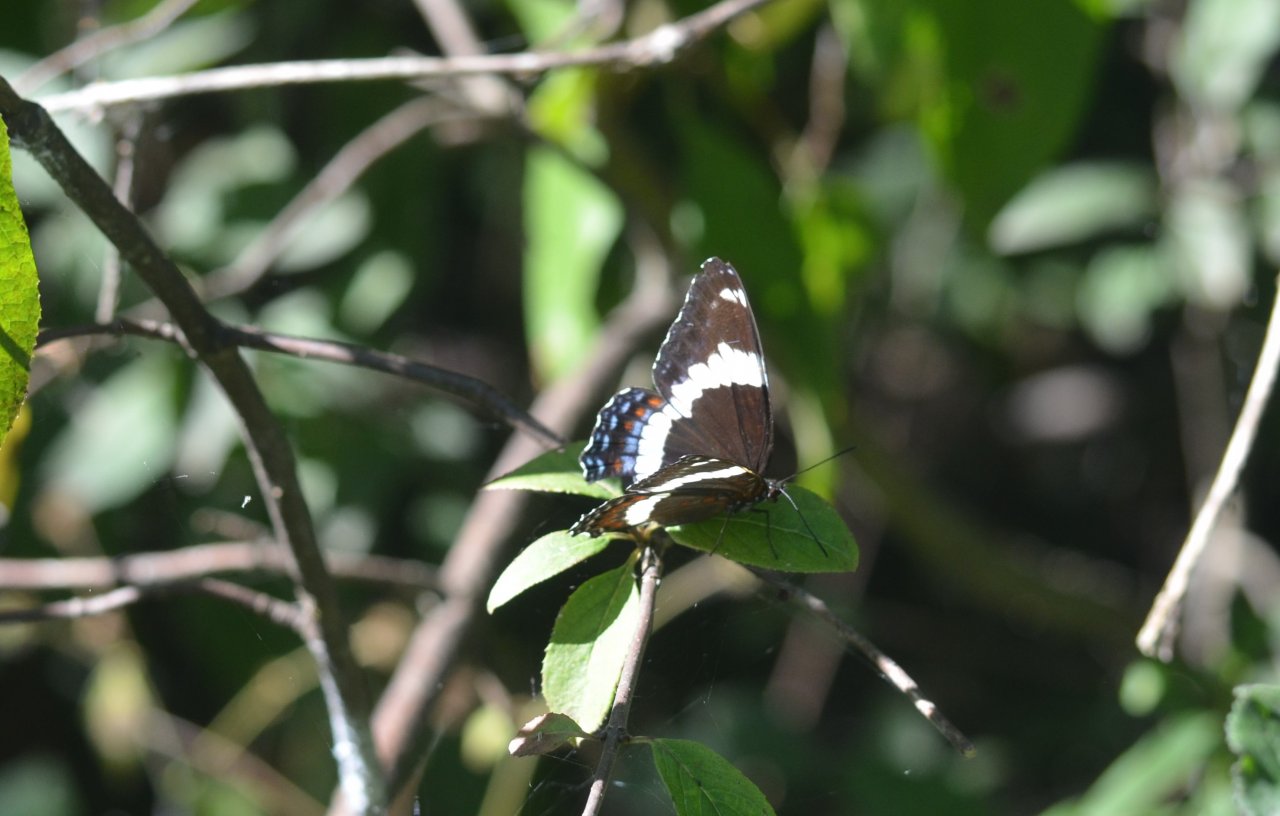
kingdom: Animalia
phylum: Arthropoda
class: Insecta
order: Lepidoptera
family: Nymphalidae
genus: Limenitis
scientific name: Limenitis arthemis
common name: Red-spotted Admiral
